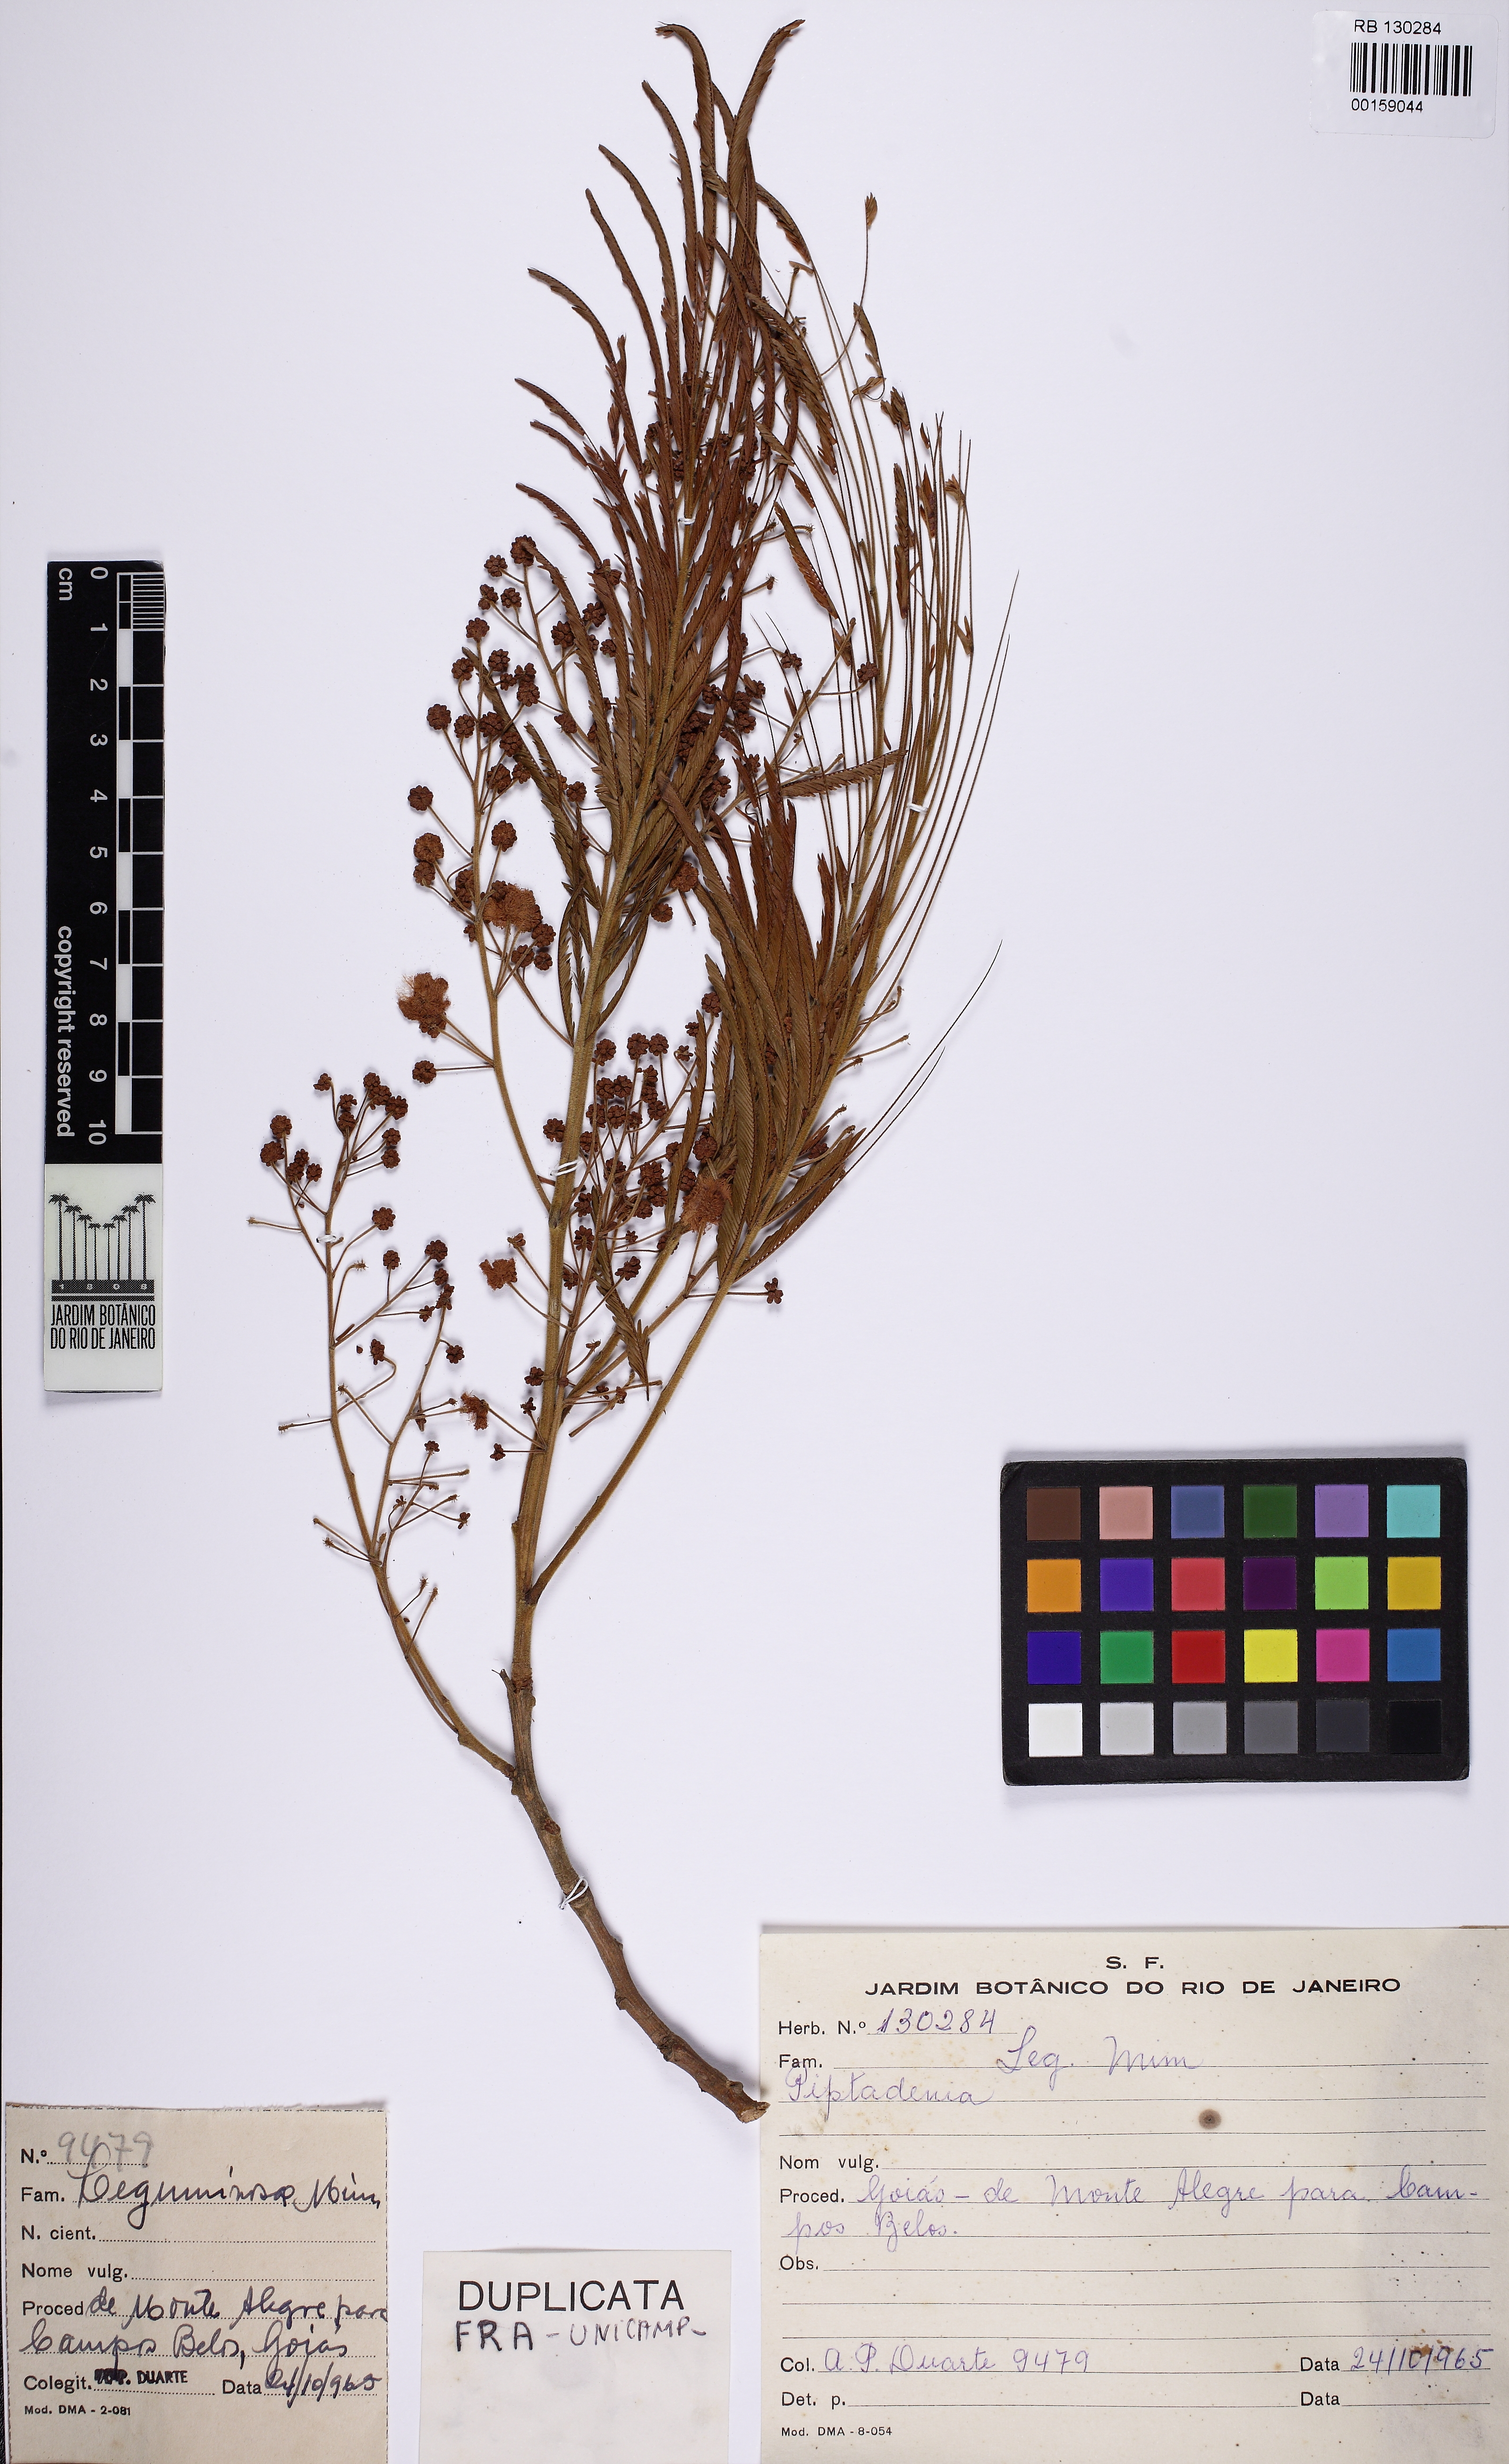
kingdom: Plantae
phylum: Tracheophyta
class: Magnoliopsida
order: Fabales
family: Fabaceae
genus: Acacia
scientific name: Acacia
